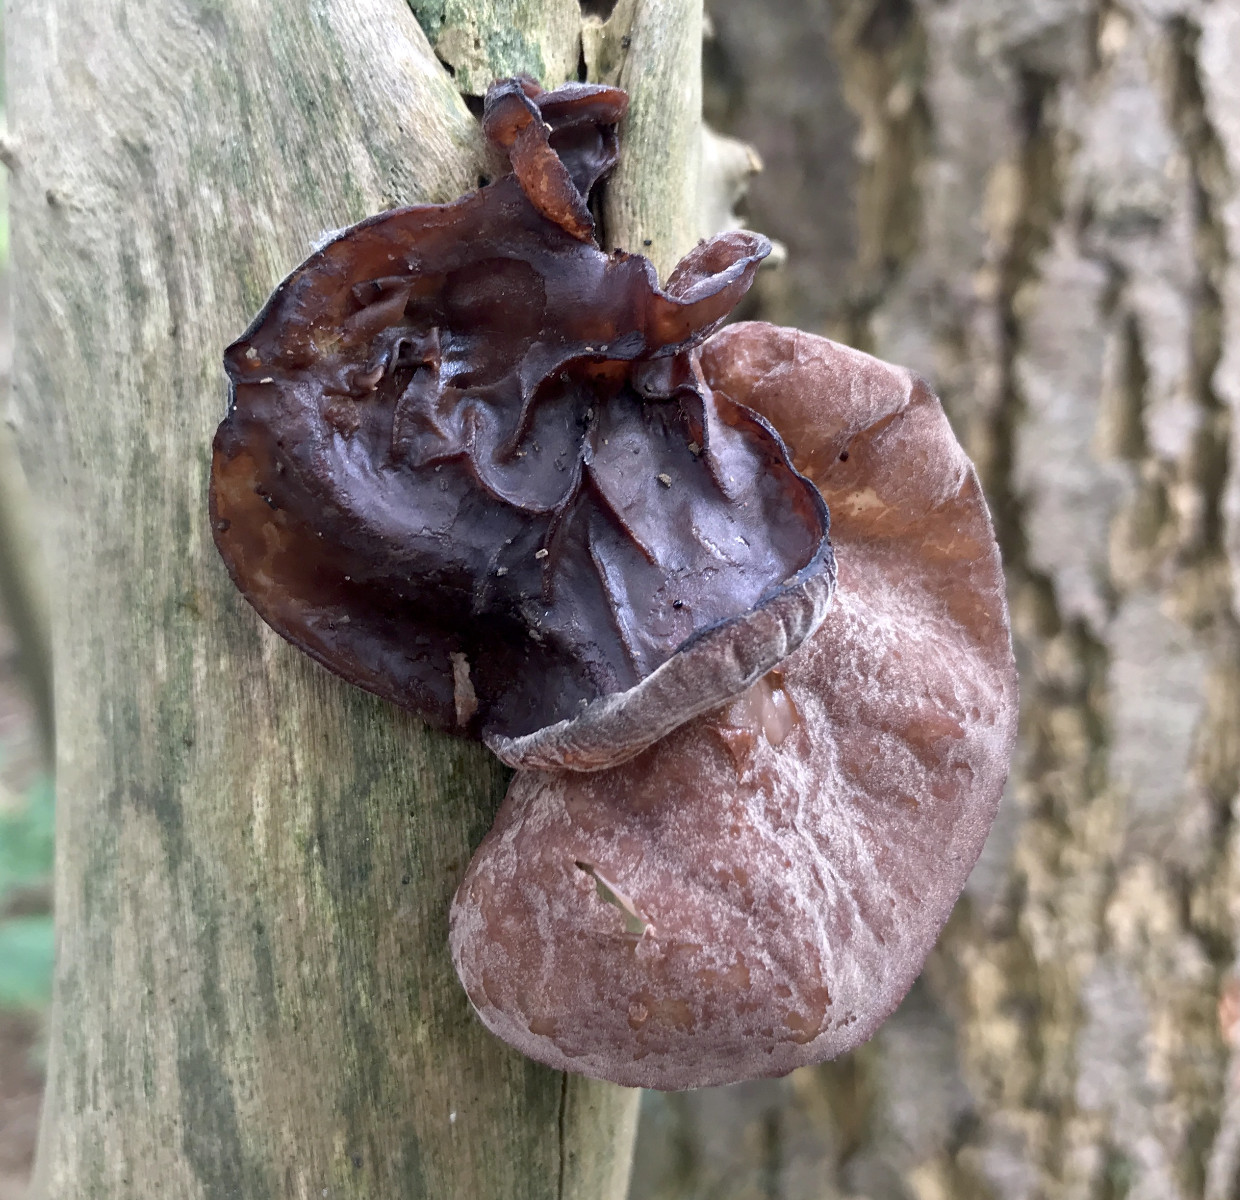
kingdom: Fungi
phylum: Basidiomycota
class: Agaricomycetes
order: Auriculariales
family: Auriculariaceae
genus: Auricularia
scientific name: Auricularia auricula-judae
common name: almindelig judasøre
